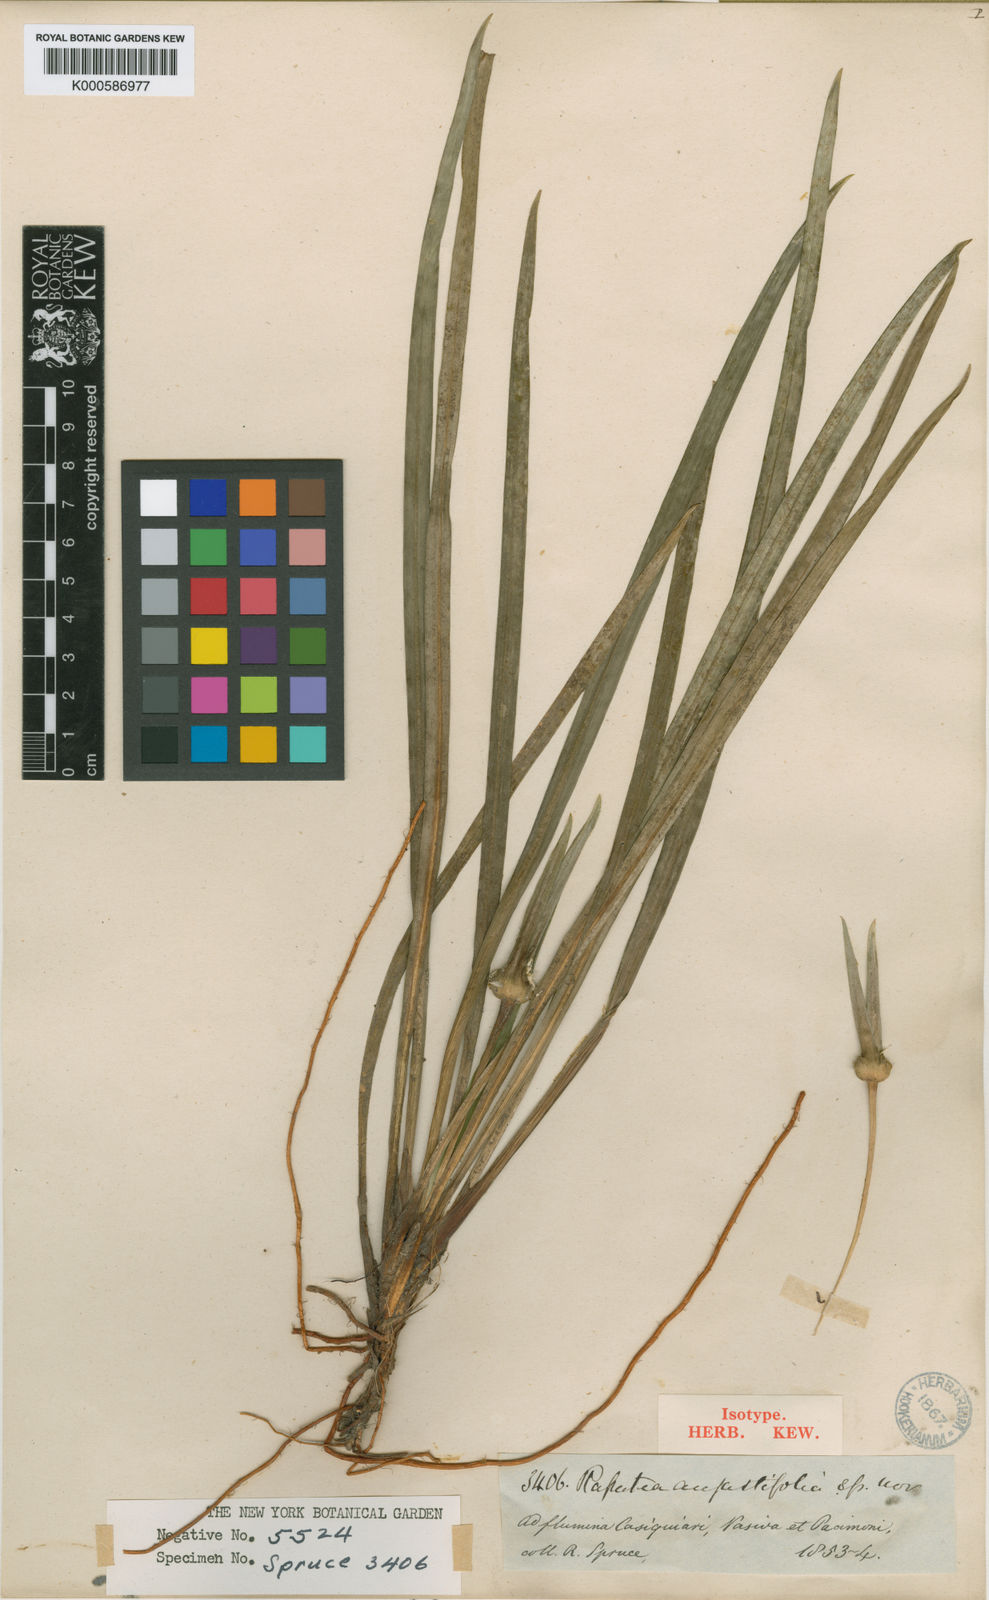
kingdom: Plantae
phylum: Tracheophyta
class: Liliopsida
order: Poales
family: Rapateaceae
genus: Rapatea
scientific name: Rapatea
